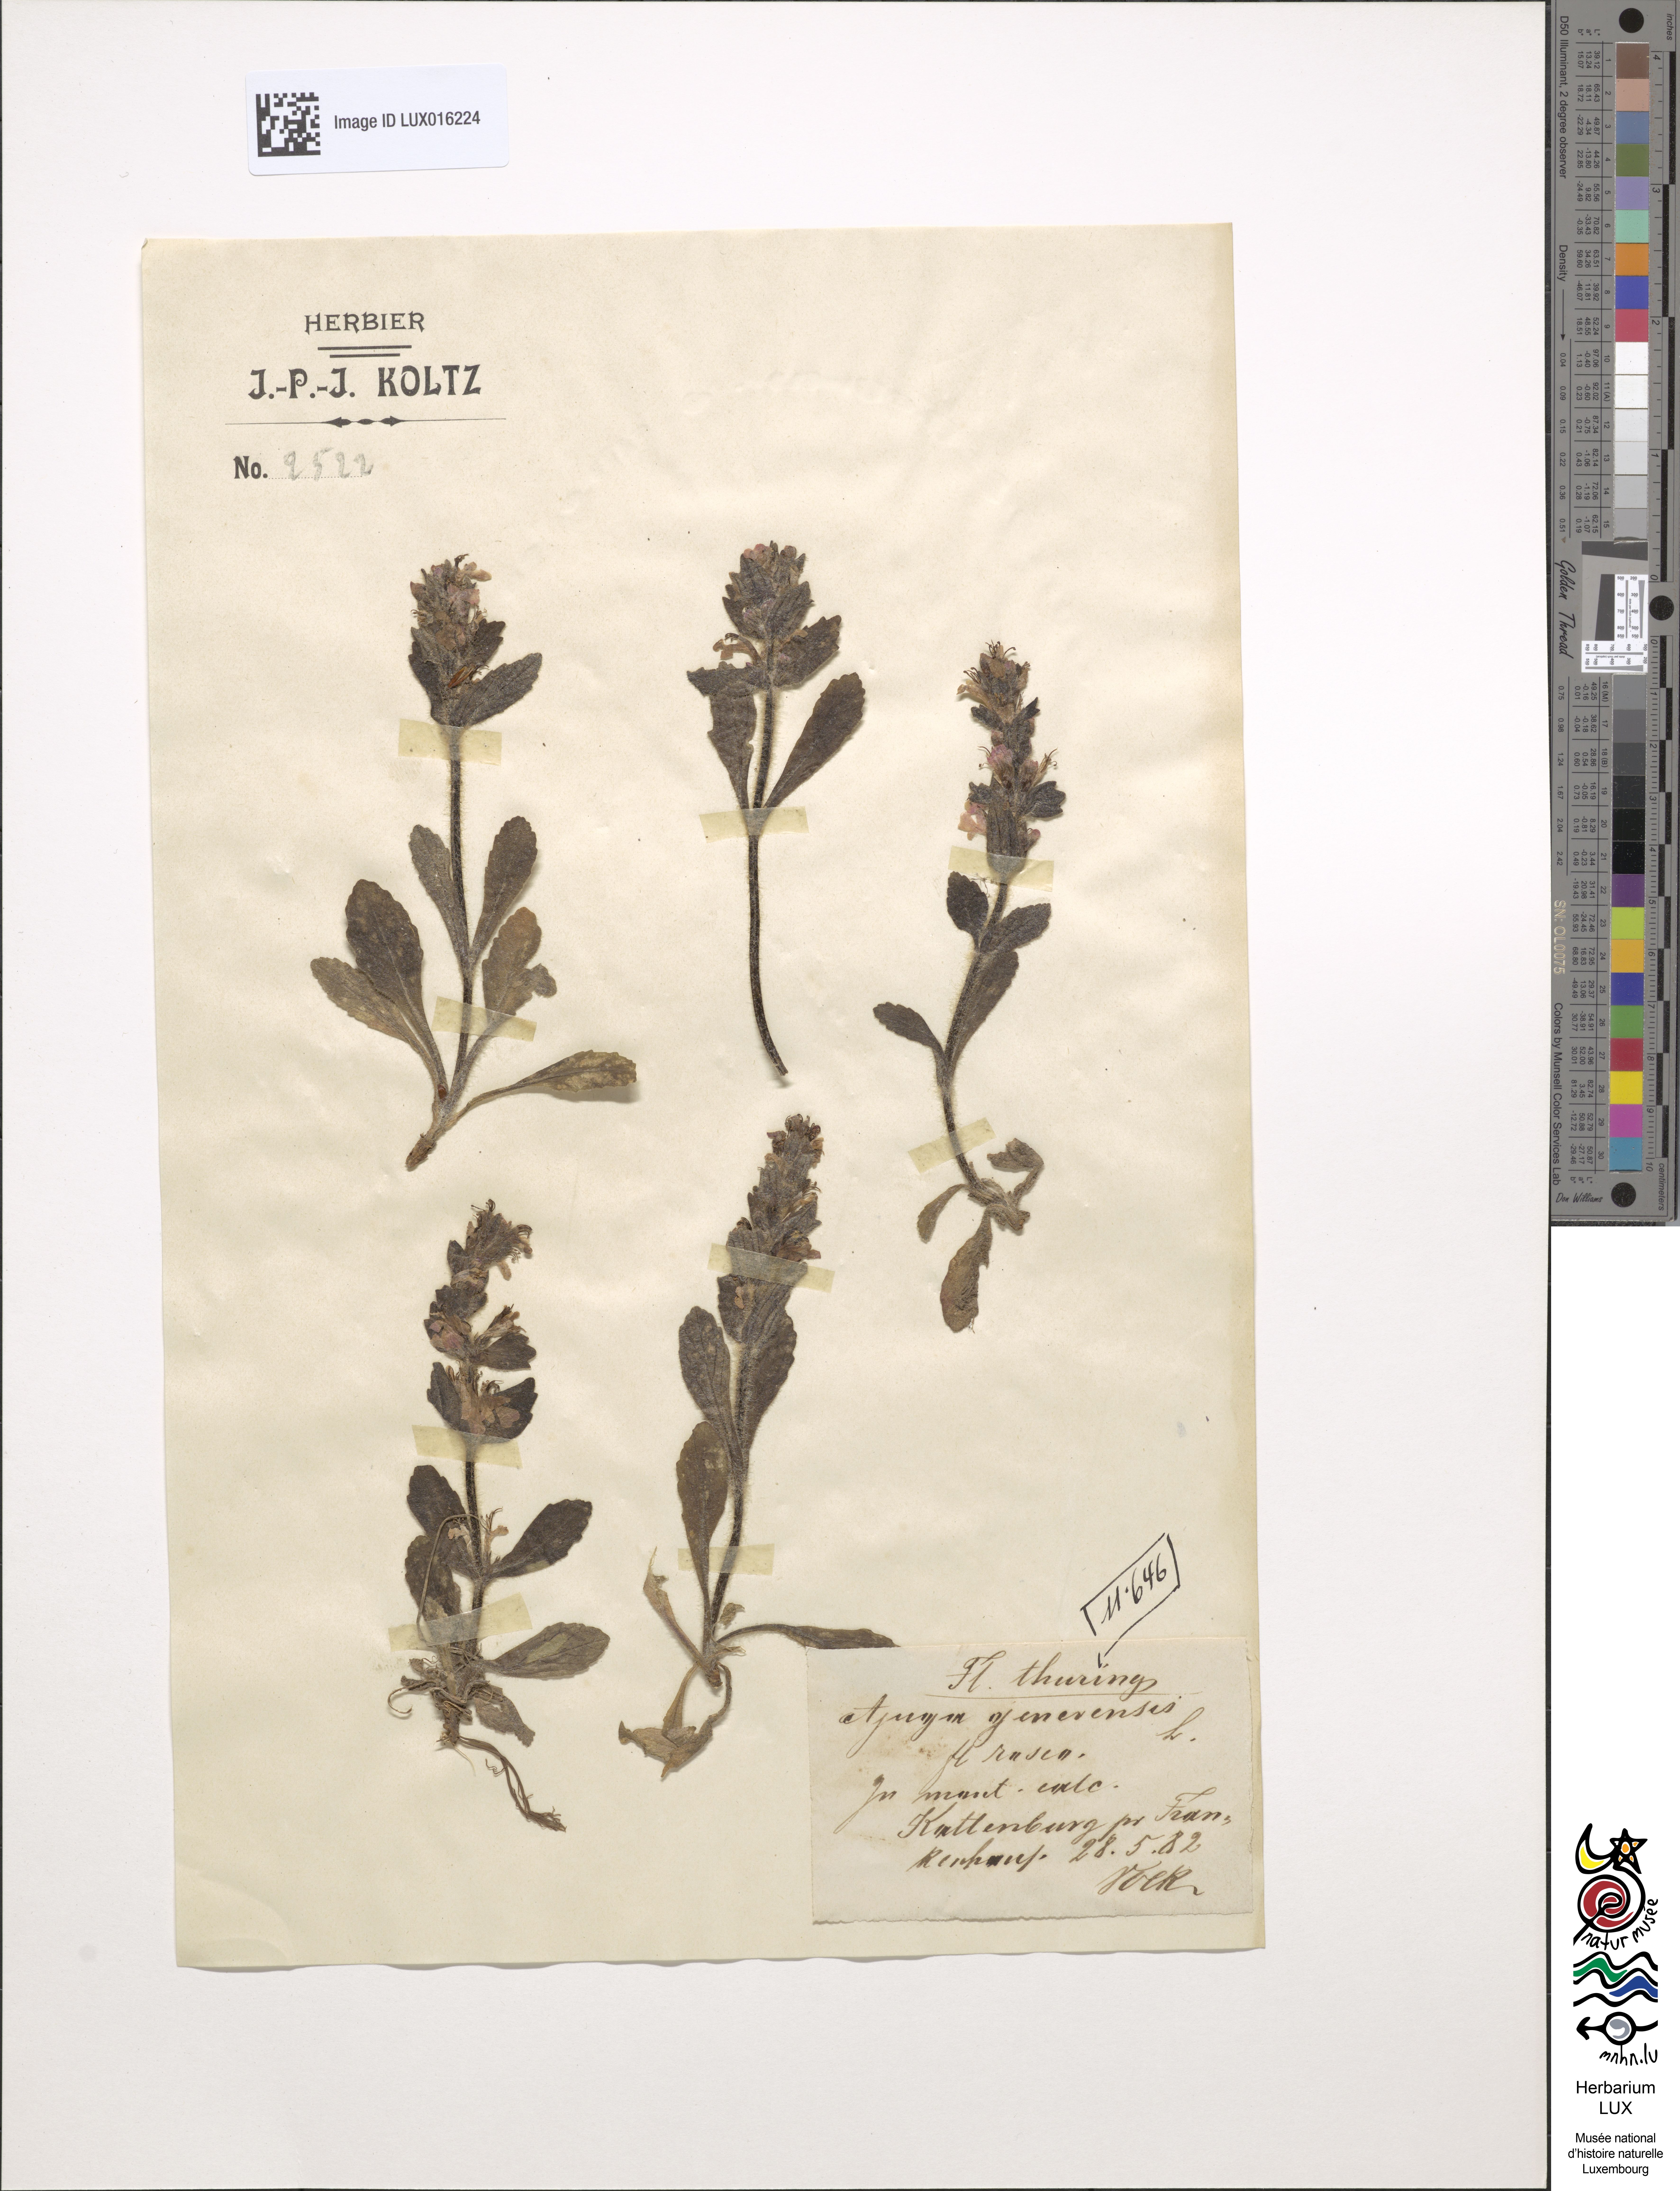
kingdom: Plantae
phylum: Tracheophyta
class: Magnoliopsida
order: Lamiales
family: Lamiaceae
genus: Ajuga
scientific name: Ajuga genevensis
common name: Blue bugle
